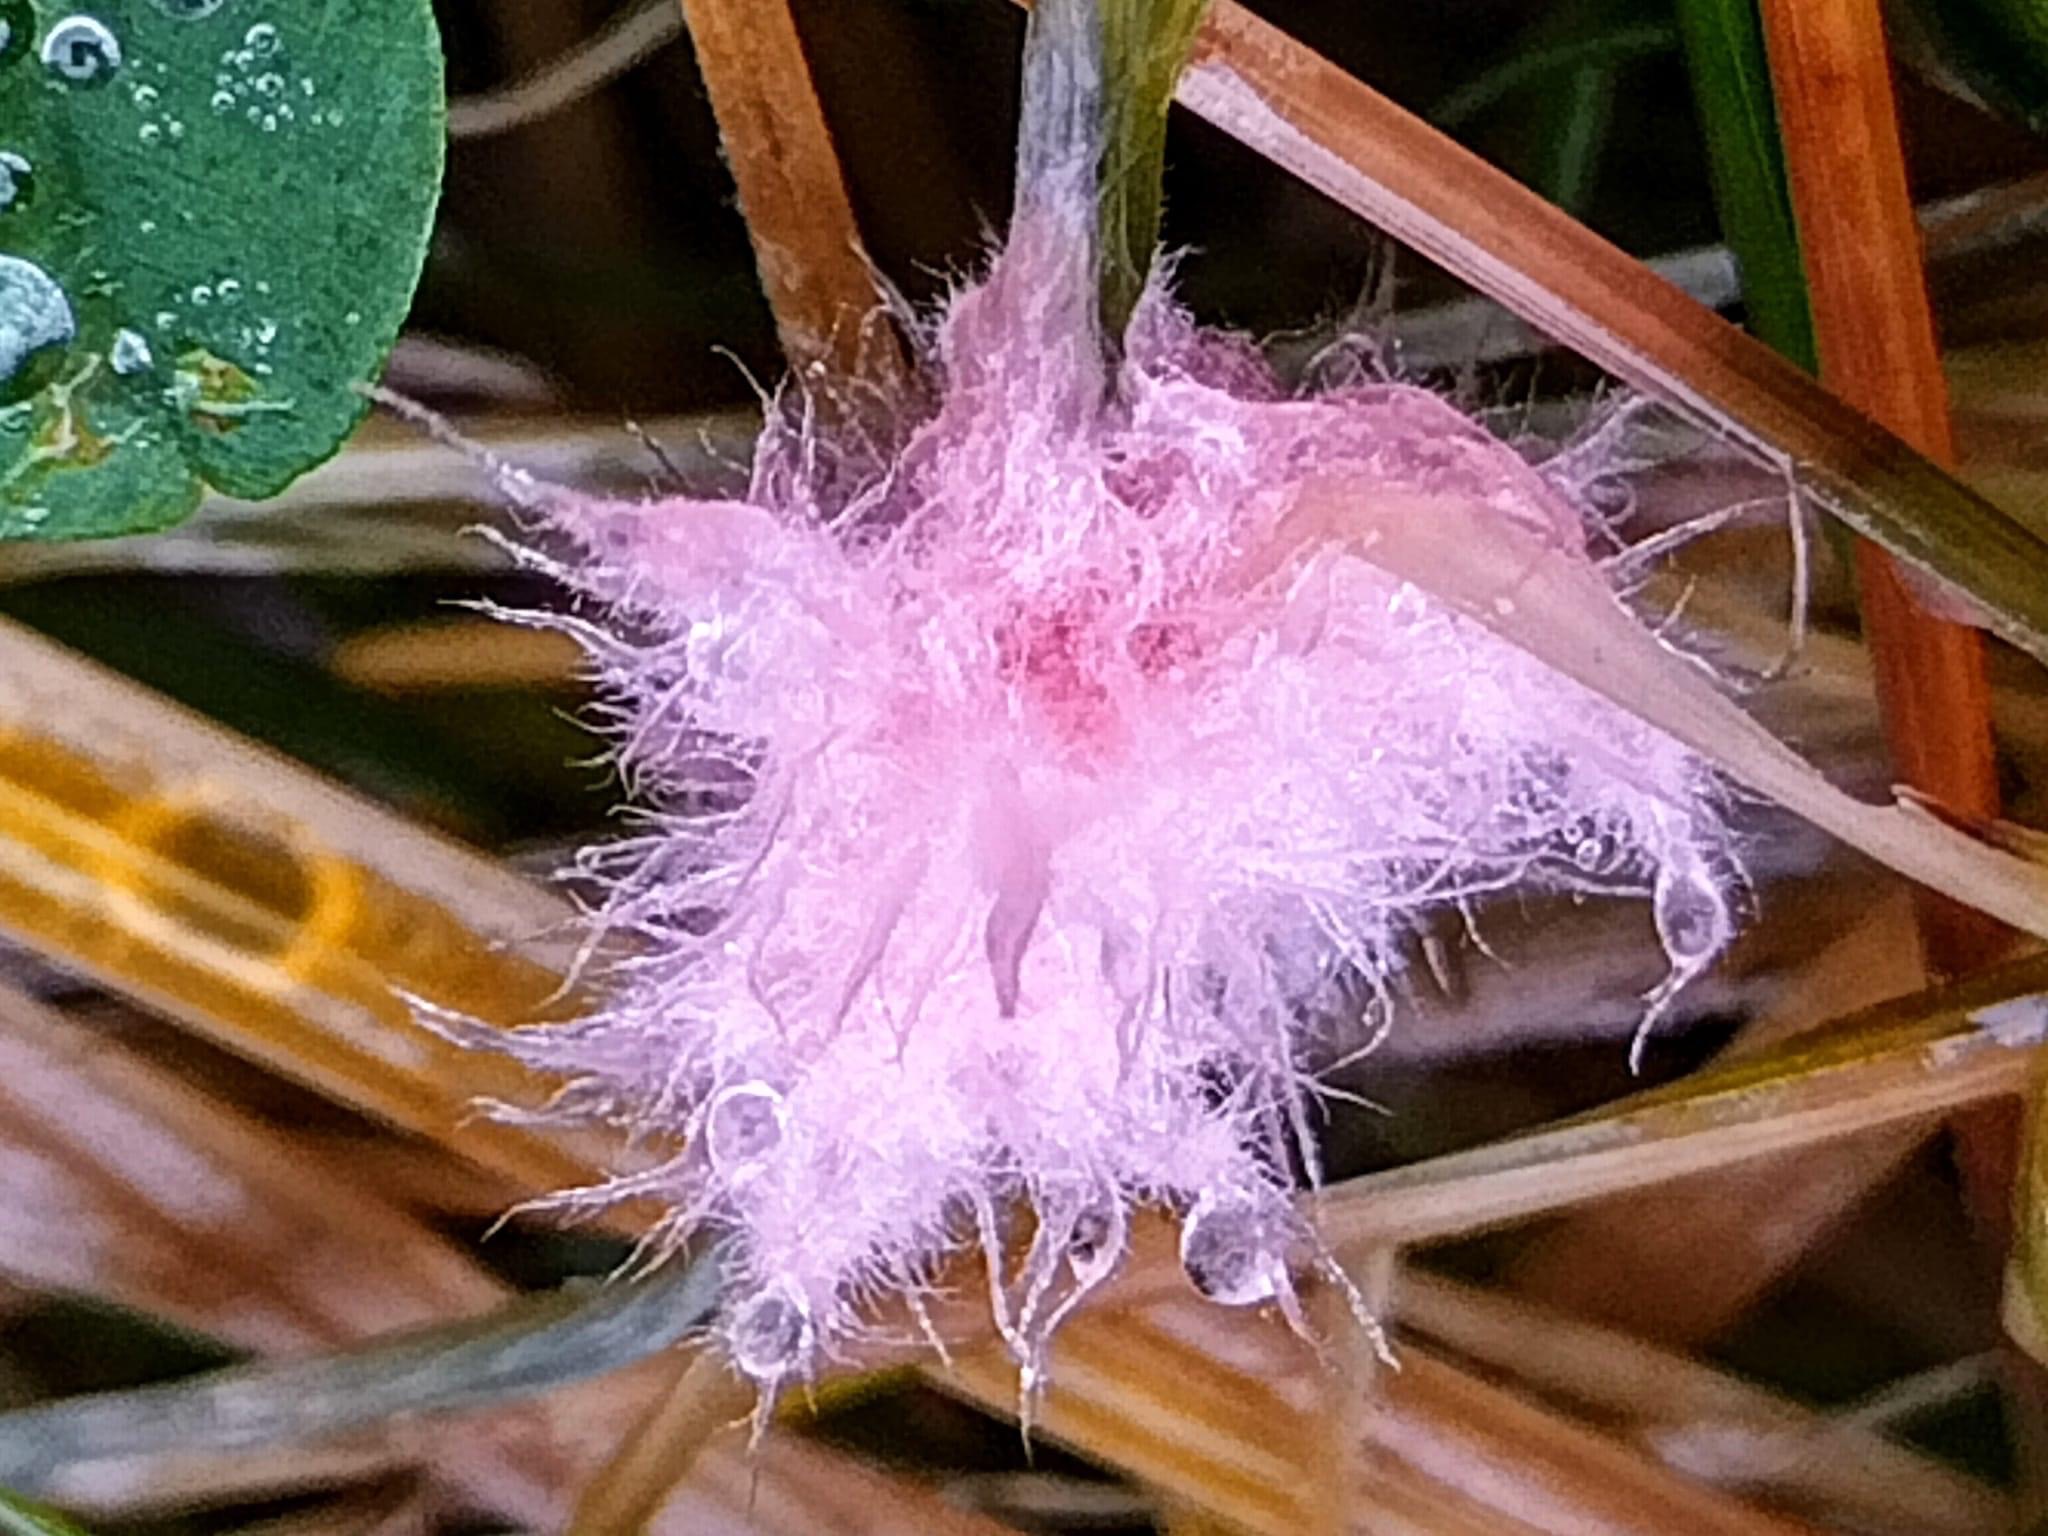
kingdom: Fungi
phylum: Basidiomycota
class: Agaricomycetes
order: Corticiales
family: Corticiaceae
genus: Laetisaria
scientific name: Laetisaria fuciformis
